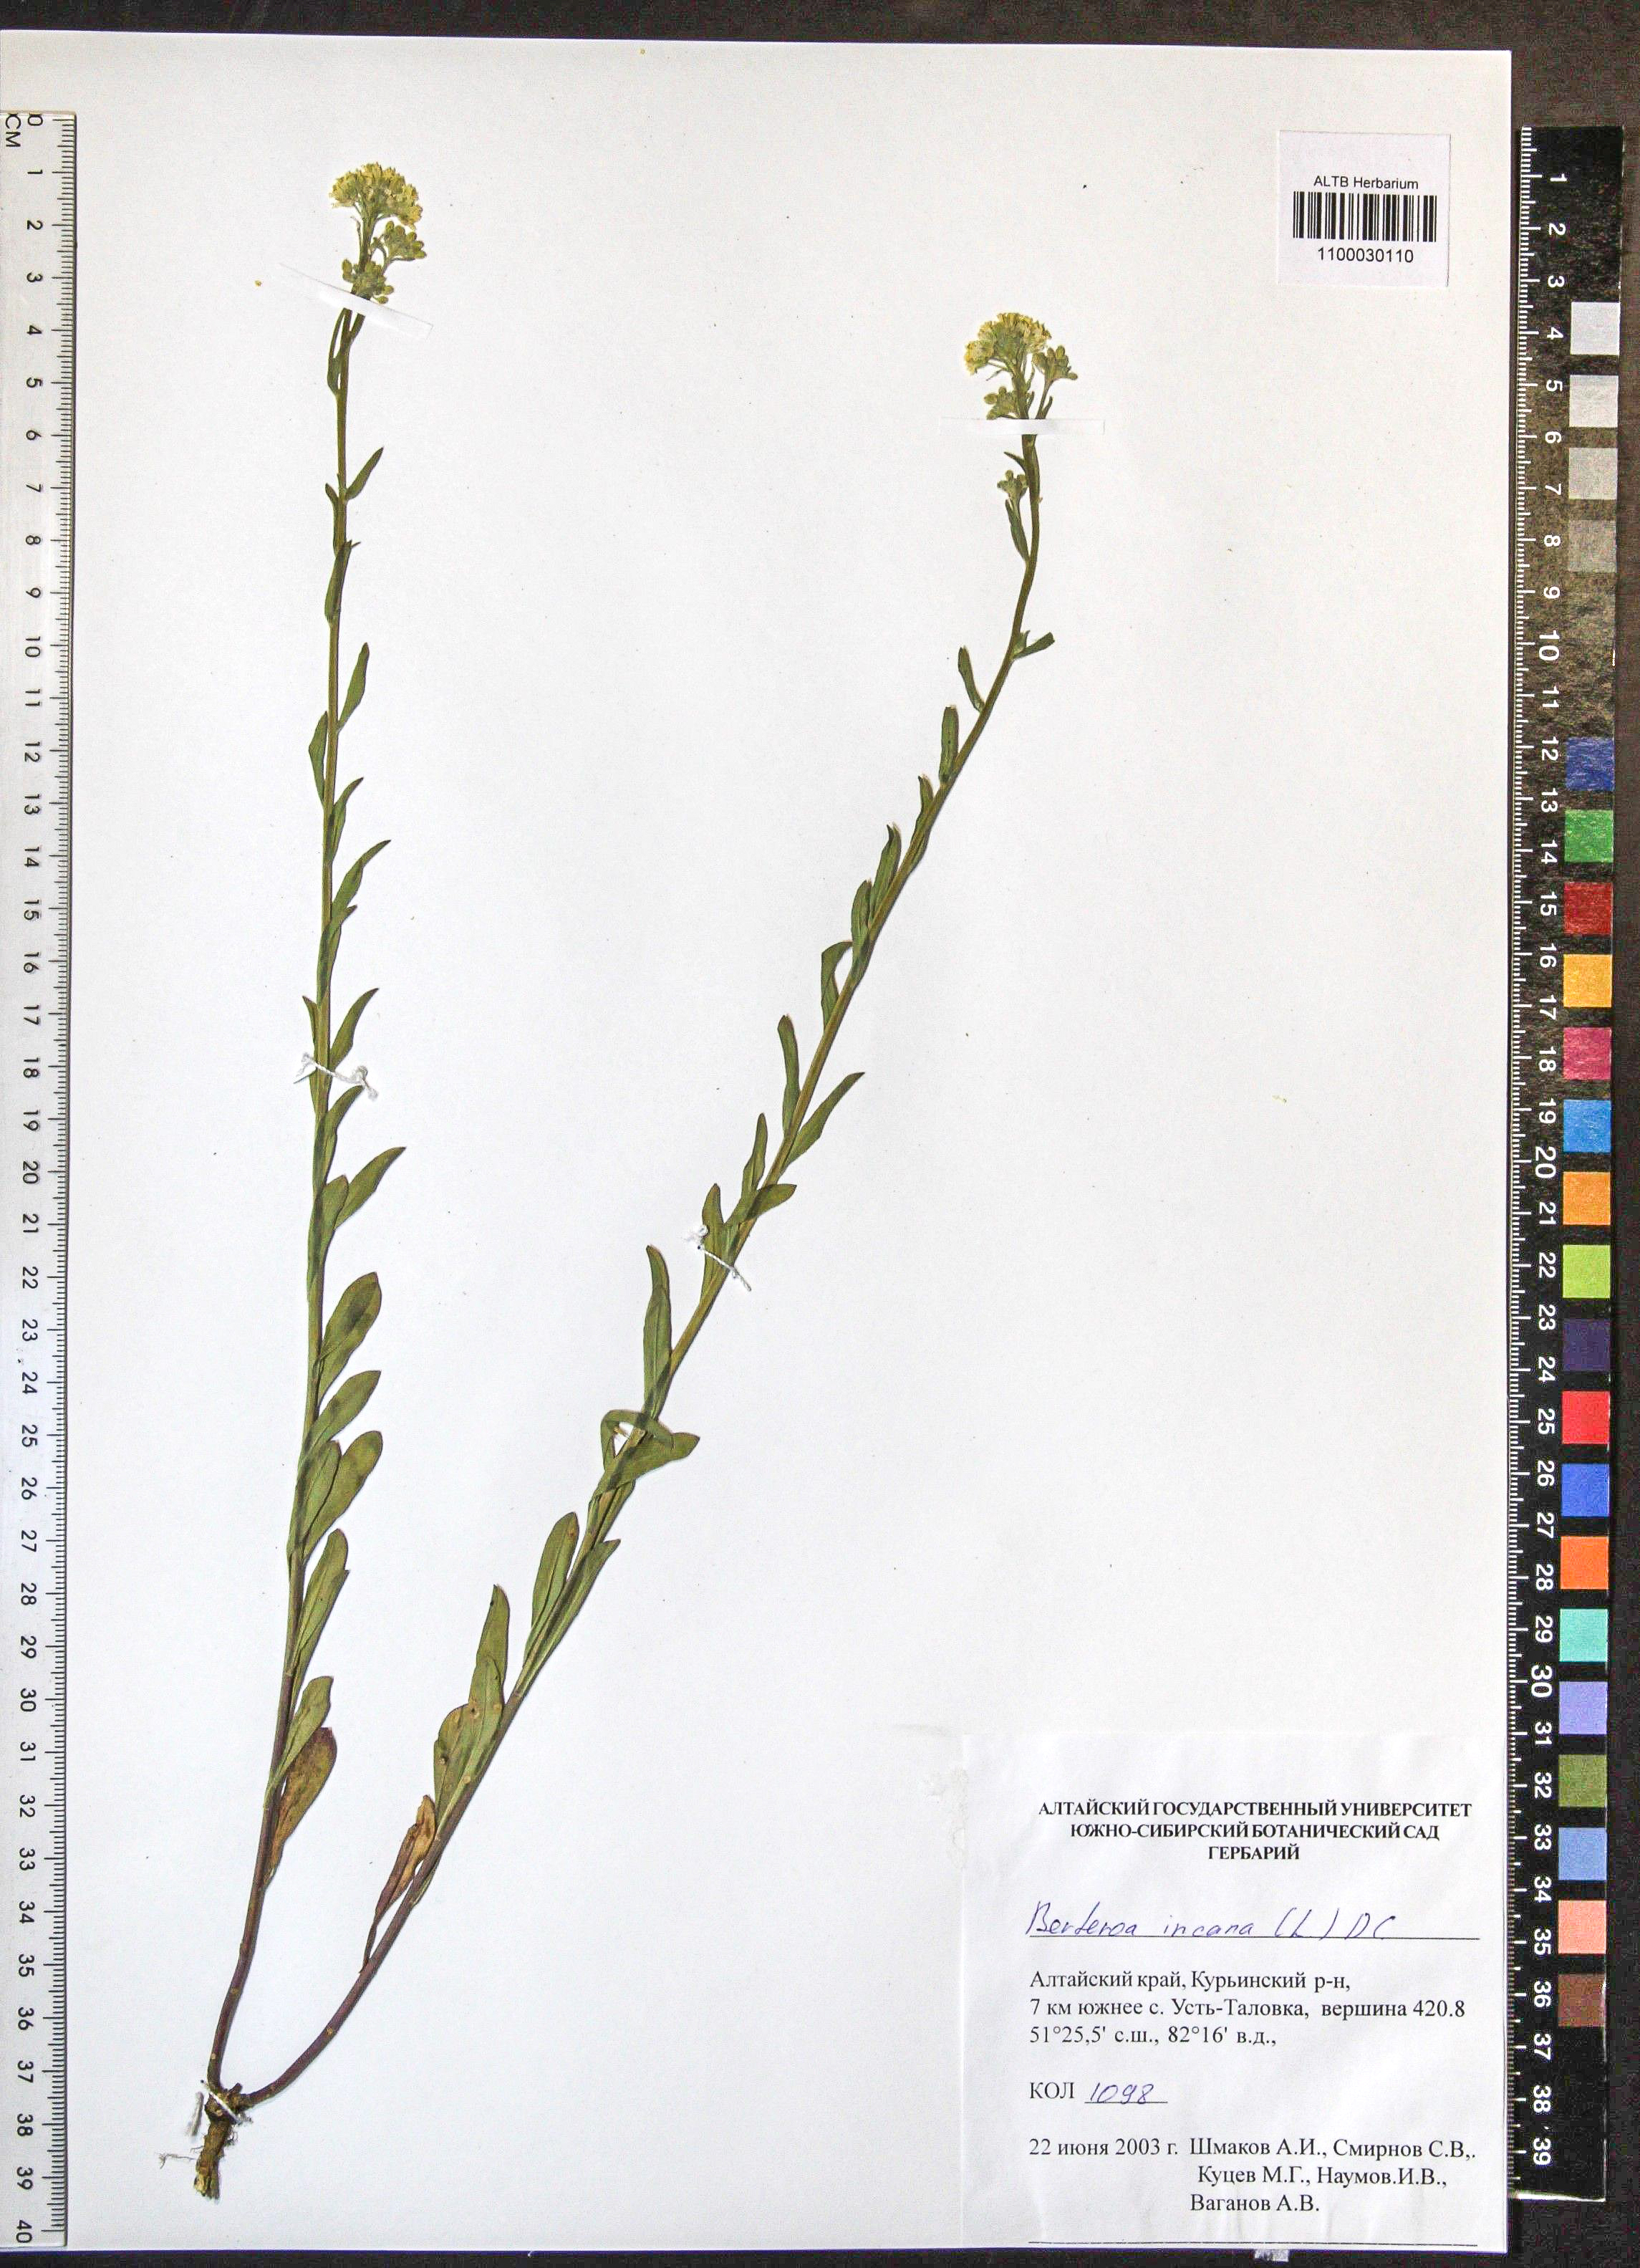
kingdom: Plantae
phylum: Tracheophyta
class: Magnoliopsida
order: Brassicales
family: Brassicaceae
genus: Berteroa
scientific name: Berteroa incana
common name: Hoary alison
